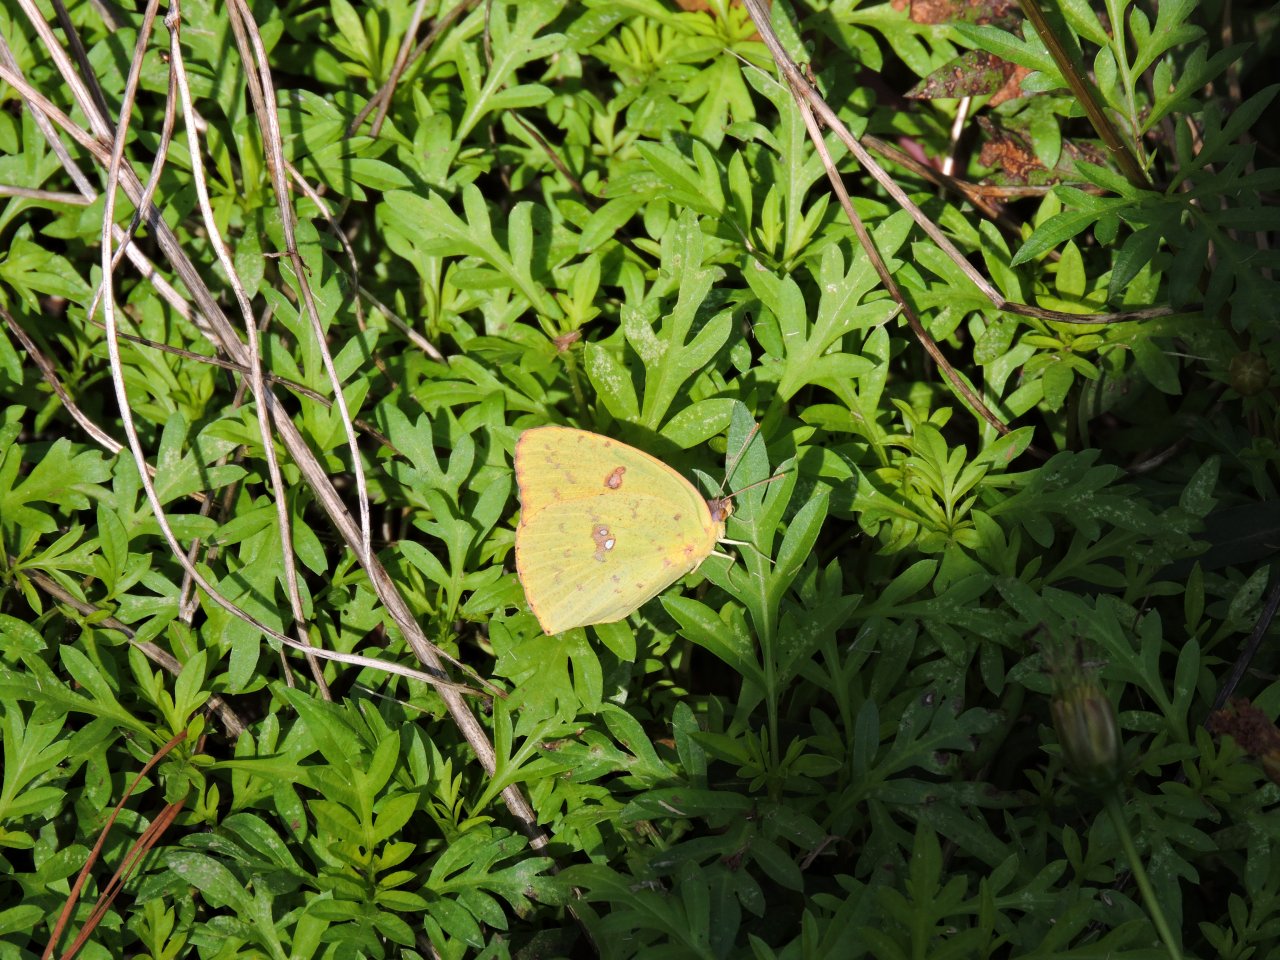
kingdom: Animalia
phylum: Arthropoda
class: Insecta
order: Lepidoptera
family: Pieridae
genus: Phoebis
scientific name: Phoebis sennae
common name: Cloudless Sulphur
